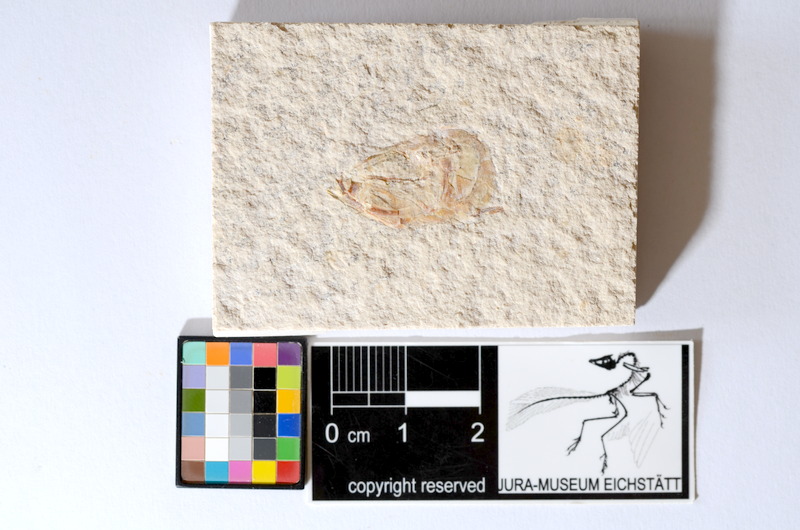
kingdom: Animalia
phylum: Chordata
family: Ascalaboidae
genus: Tharsis
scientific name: Tharsis dubius
